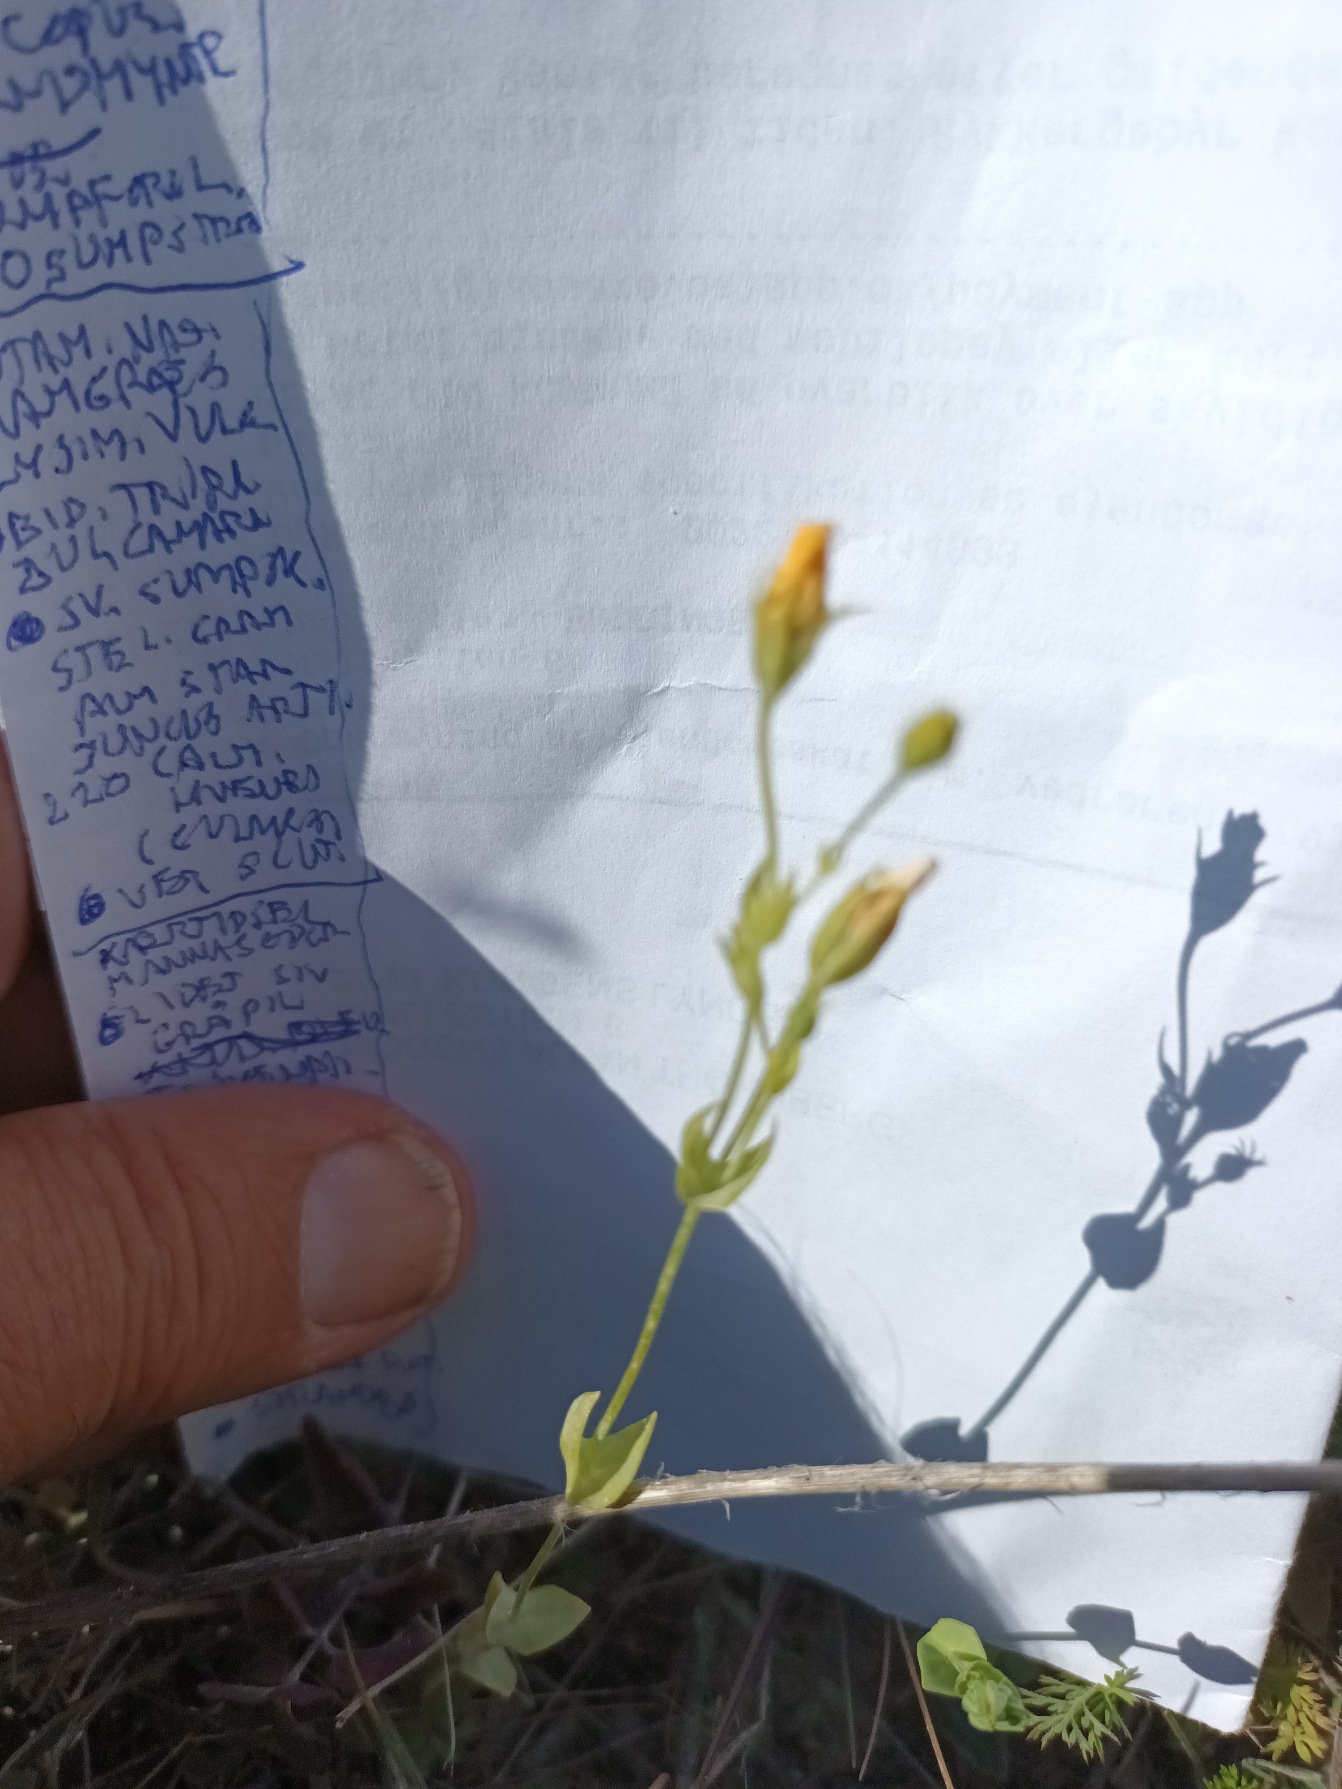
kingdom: Plantae
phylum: Tracheophyta
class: Magnoliopsida
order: Gentianales
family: Gentianaceae
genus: Blackstonia
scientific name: Blackstonia perfoliata
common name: Almindelig gyldenurt
